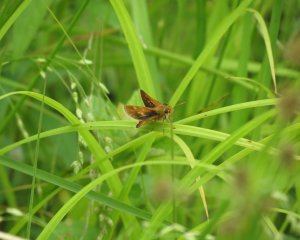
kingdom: Animalia
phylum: Arthropoda
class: Insecta
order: Lepidoptera
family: Hesperiidae
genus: Polites
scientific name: Polites themistocles
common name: Tawny-edged Skipper
